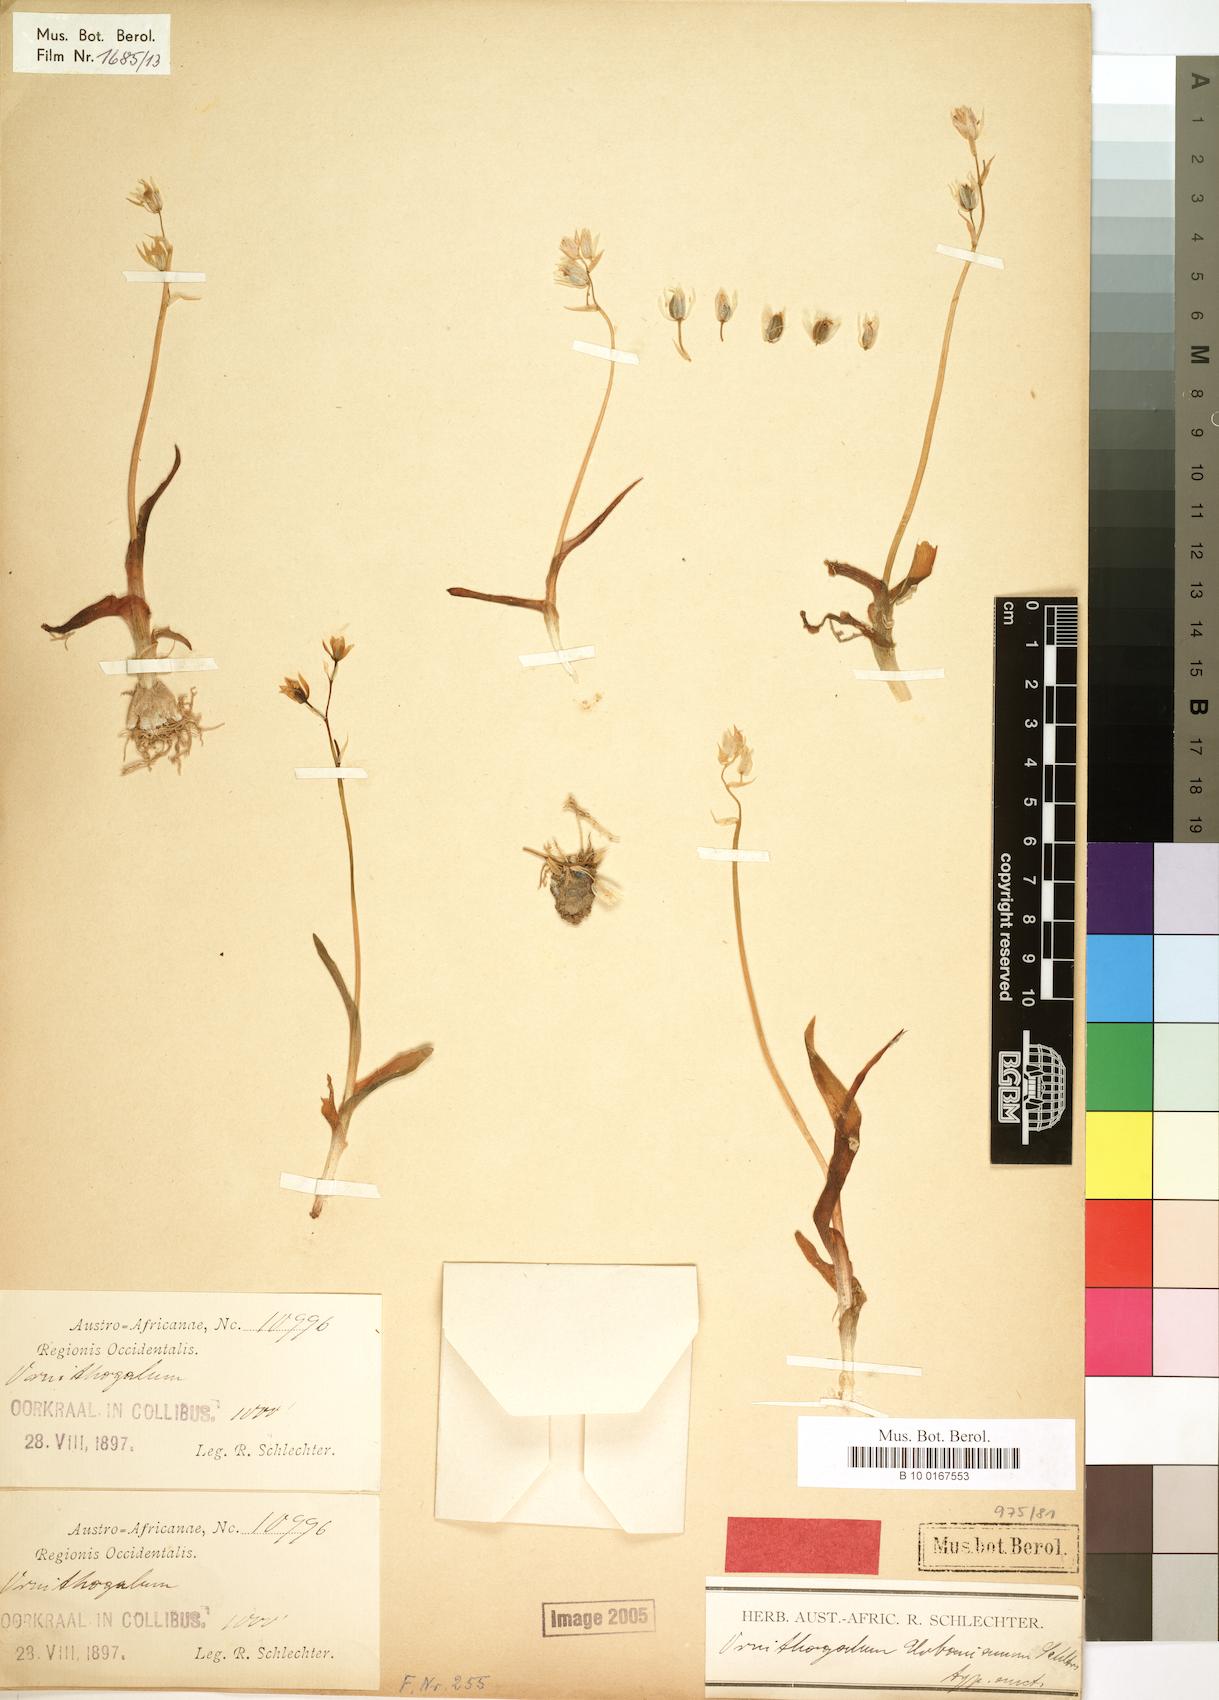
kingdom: Plantae
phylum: Tracheophyta
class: Liliopsida
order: Asparagales
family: Asparagaceae
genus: Ornithogalum
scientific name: Ornithogalum hispidum
